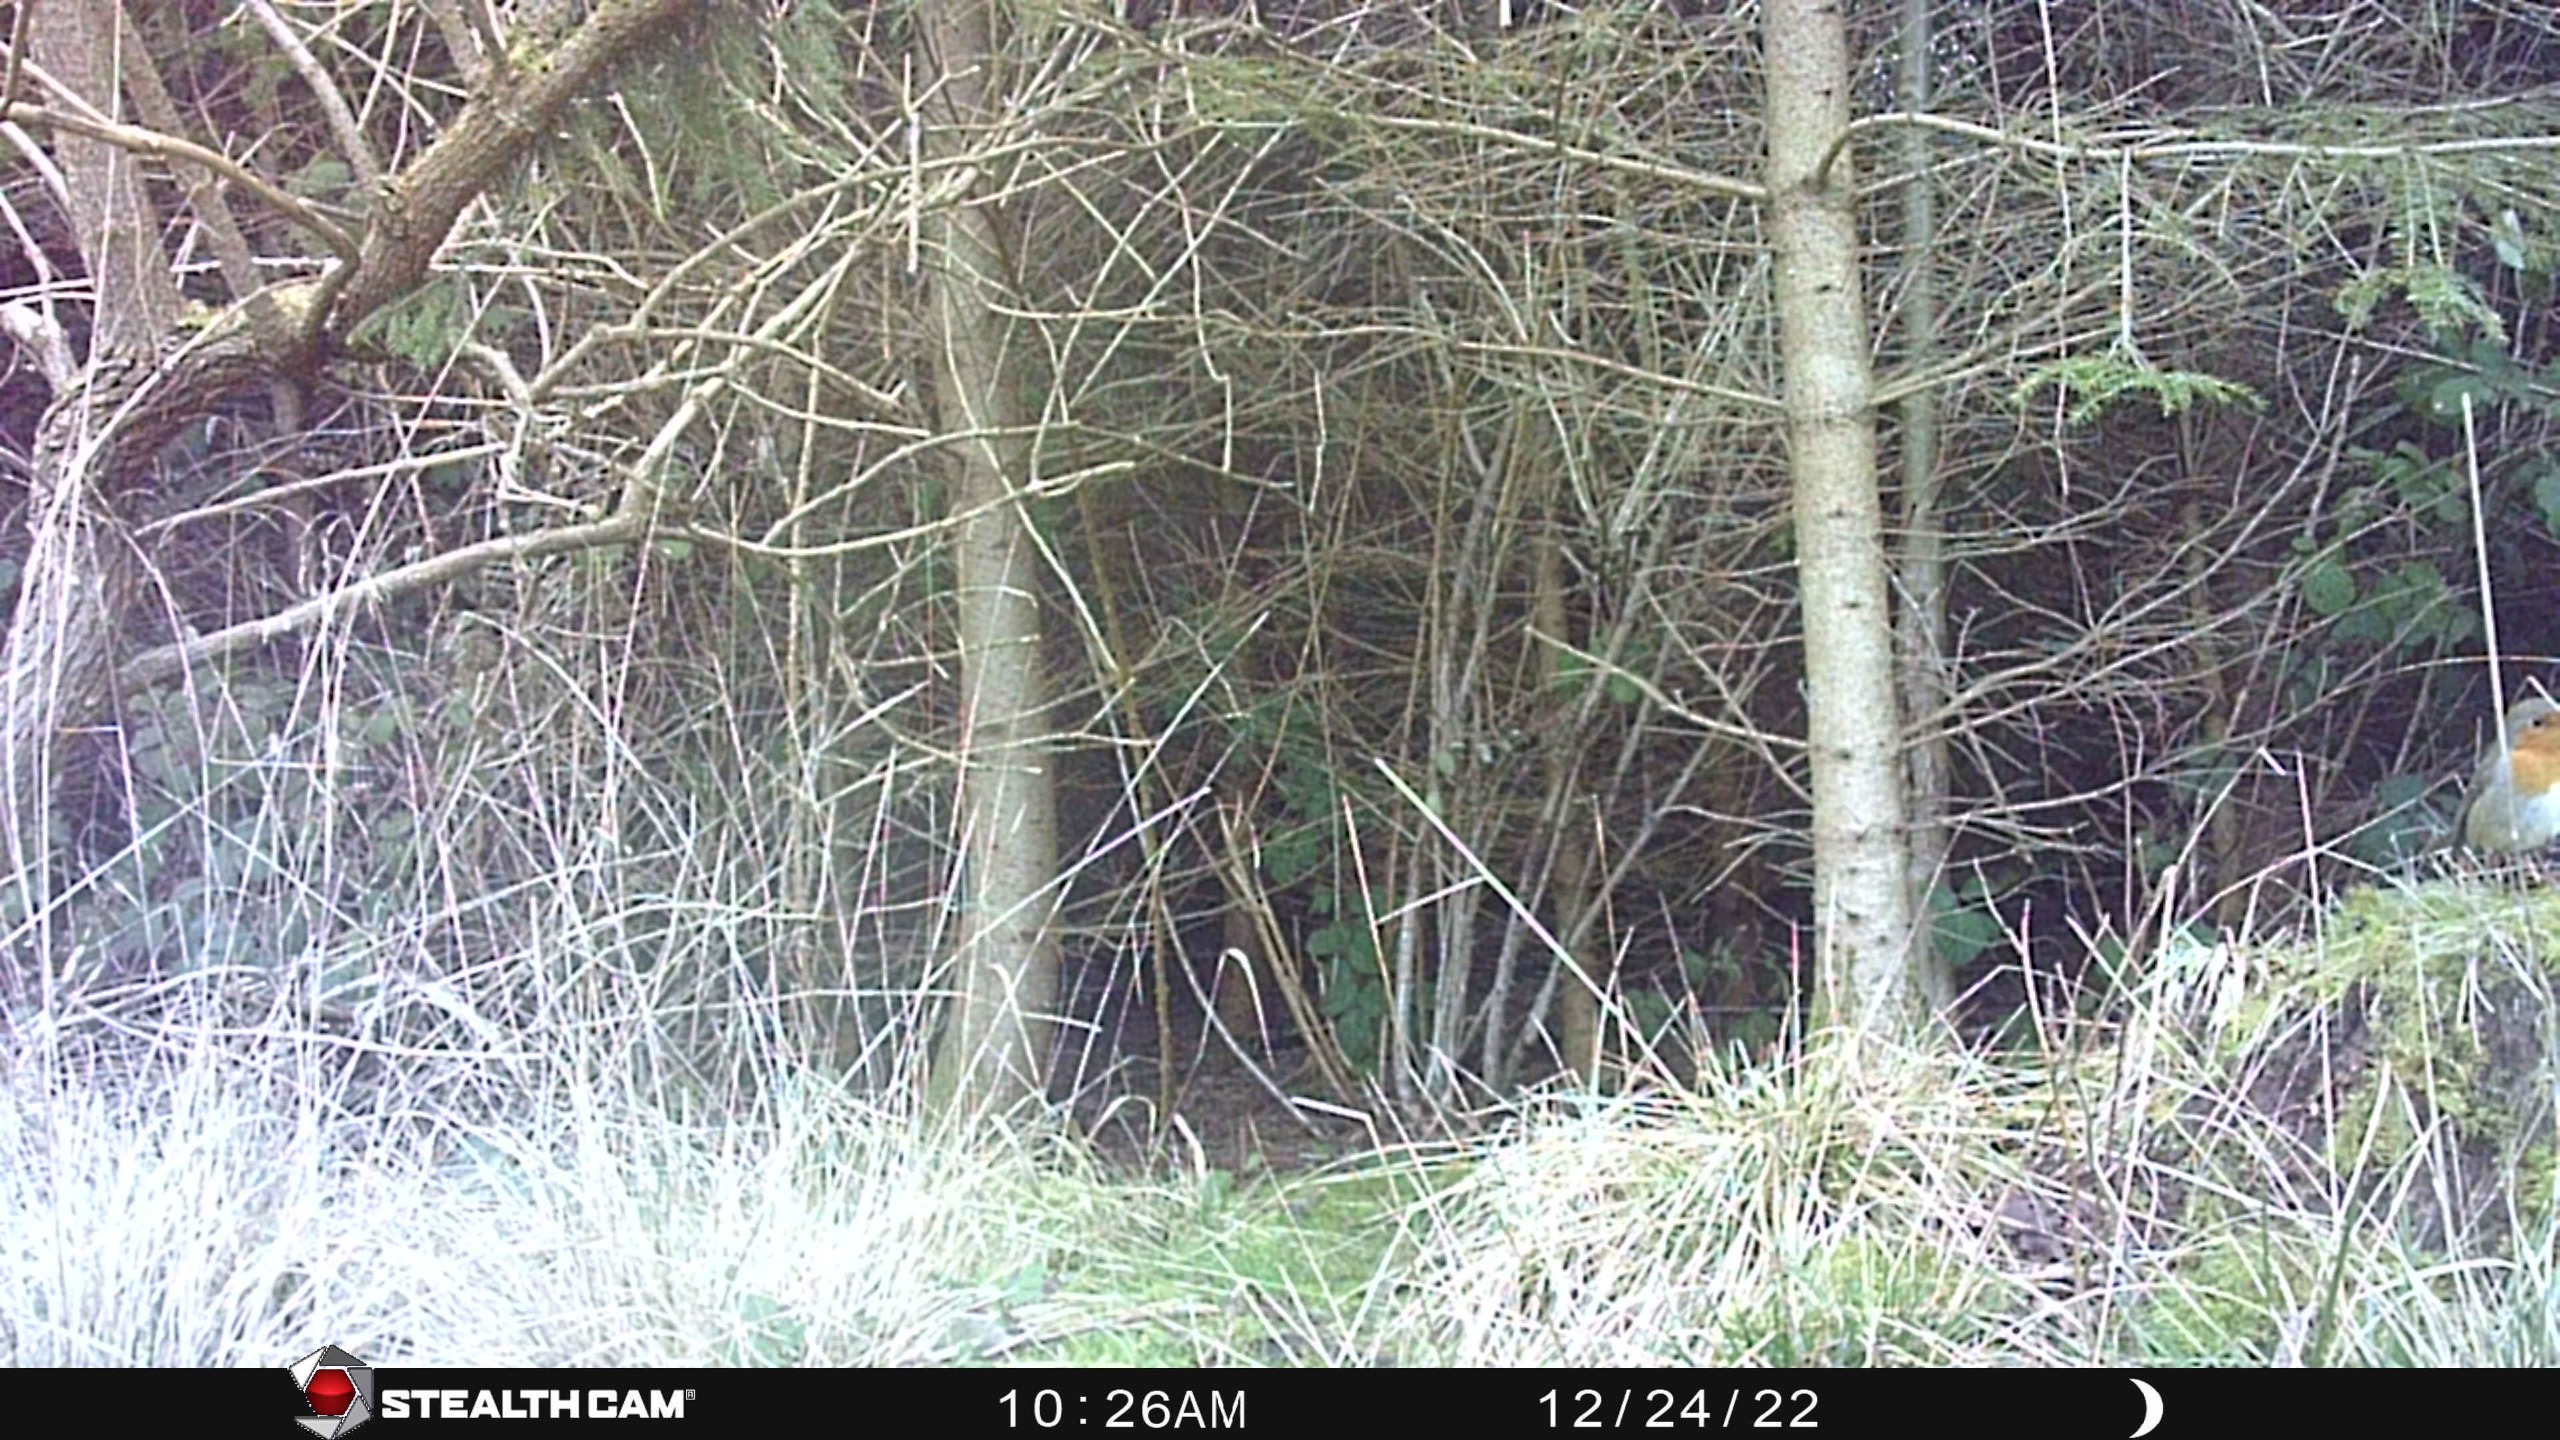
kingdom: Animalia
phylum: Chordata
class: Aves
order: Passeriformes
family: Muscicapidae
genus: Erithacus
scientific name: Erithacus rubecula
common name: Rødhals/rødkælk
